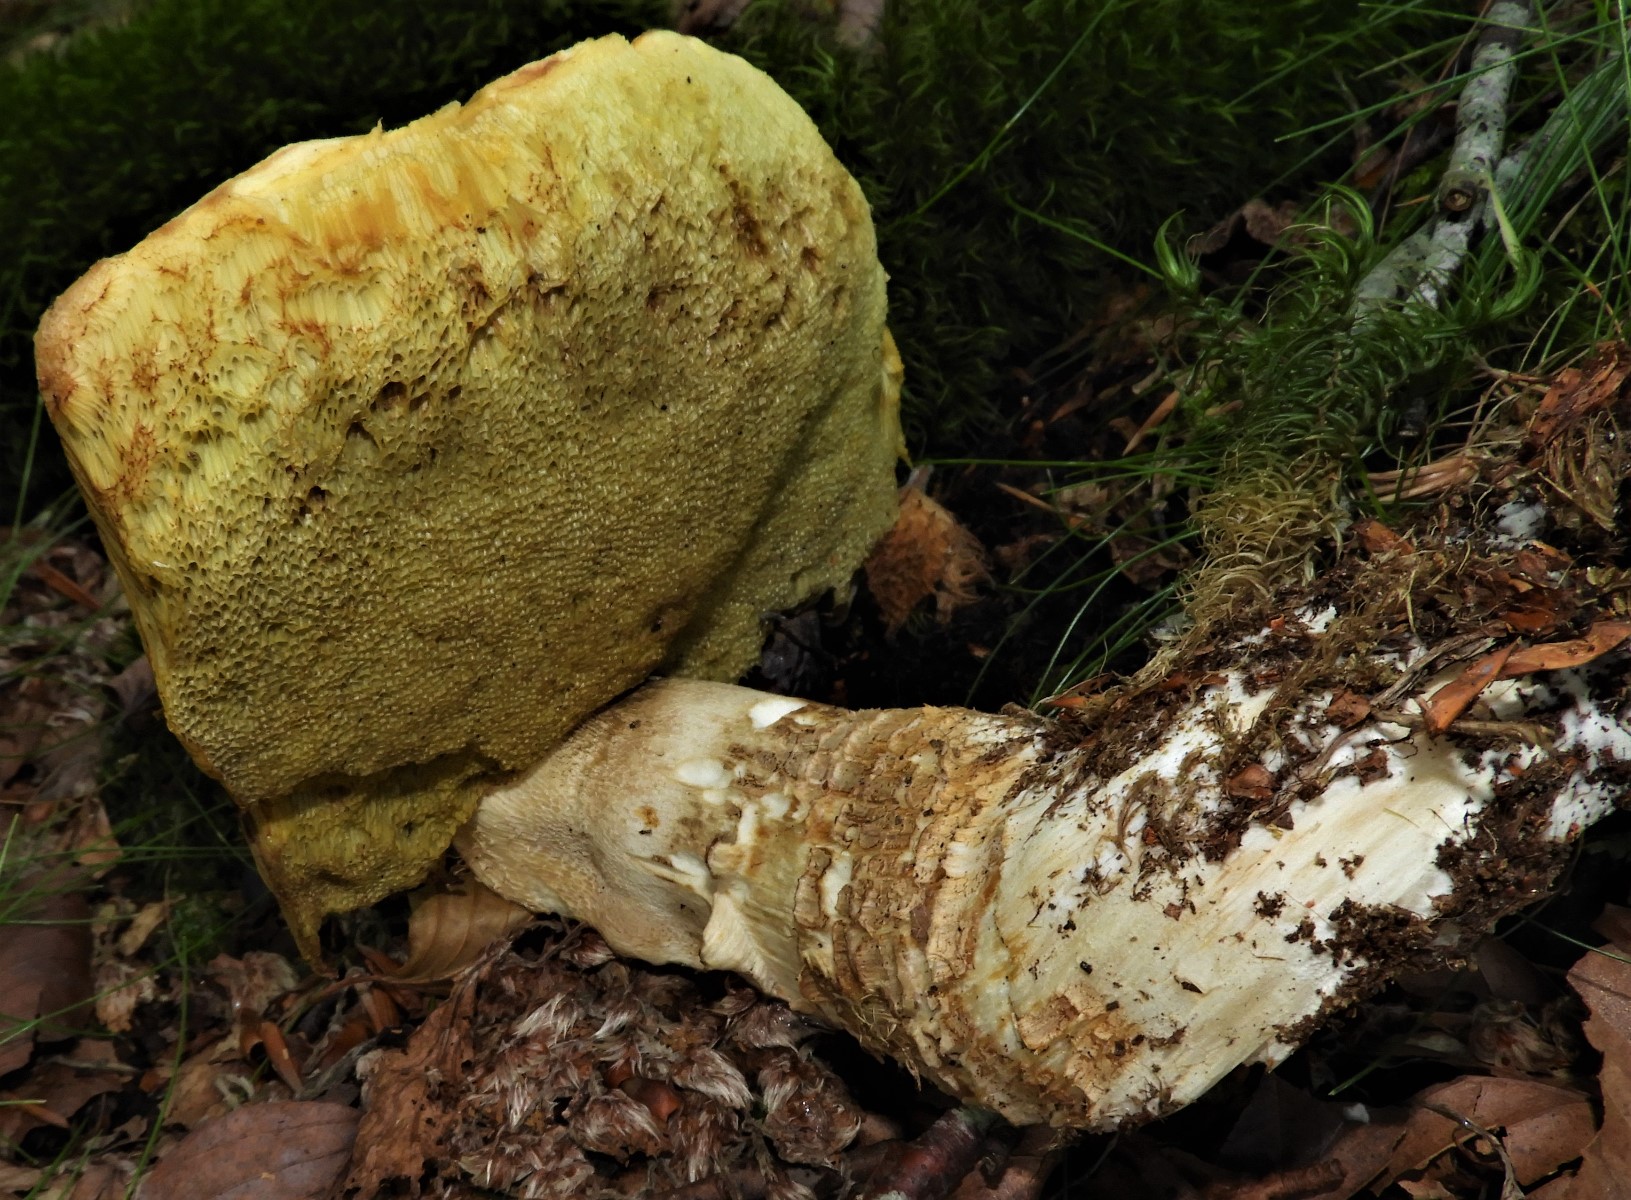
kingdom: Fungi
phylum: Basidiomycota
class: Agaricomycetes
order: Boletales
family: Boletaceae
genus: Boletus
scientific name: Boletus reticulatus
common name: sommer-rørhat
